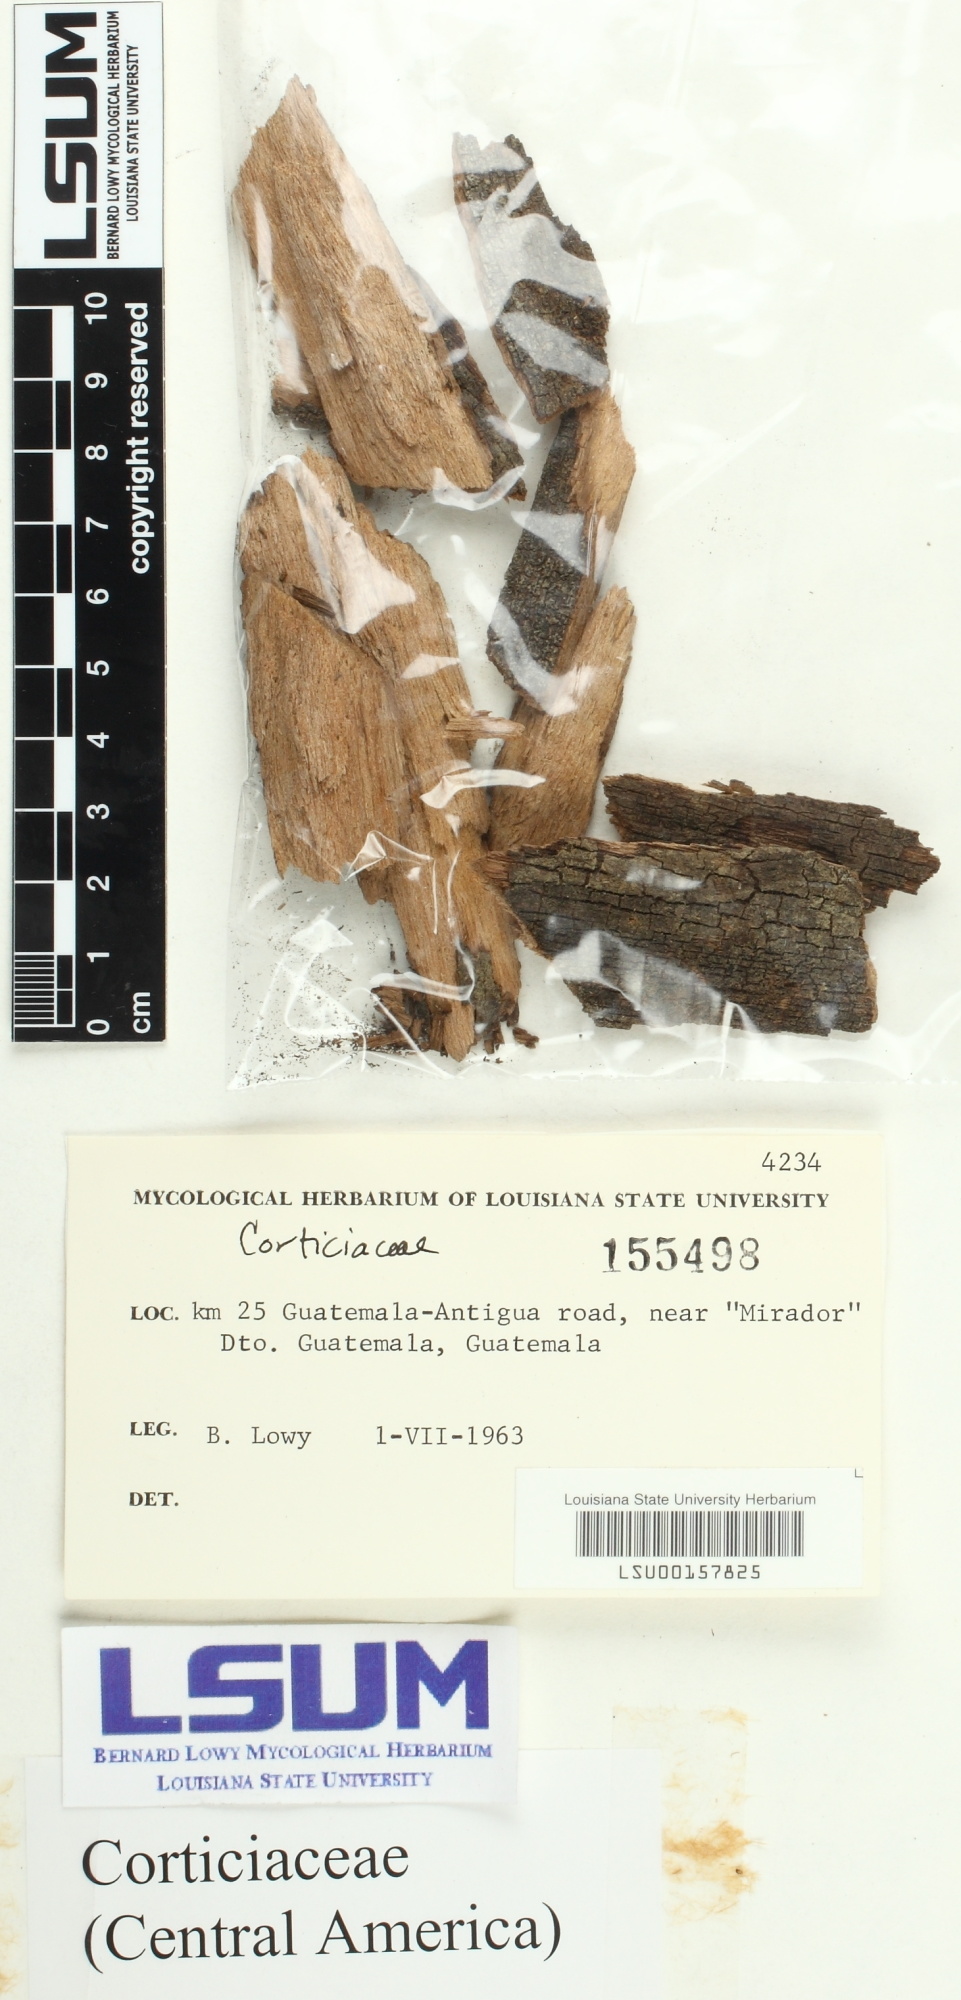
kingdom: Fungi
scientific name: Fungi
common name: Fungi
